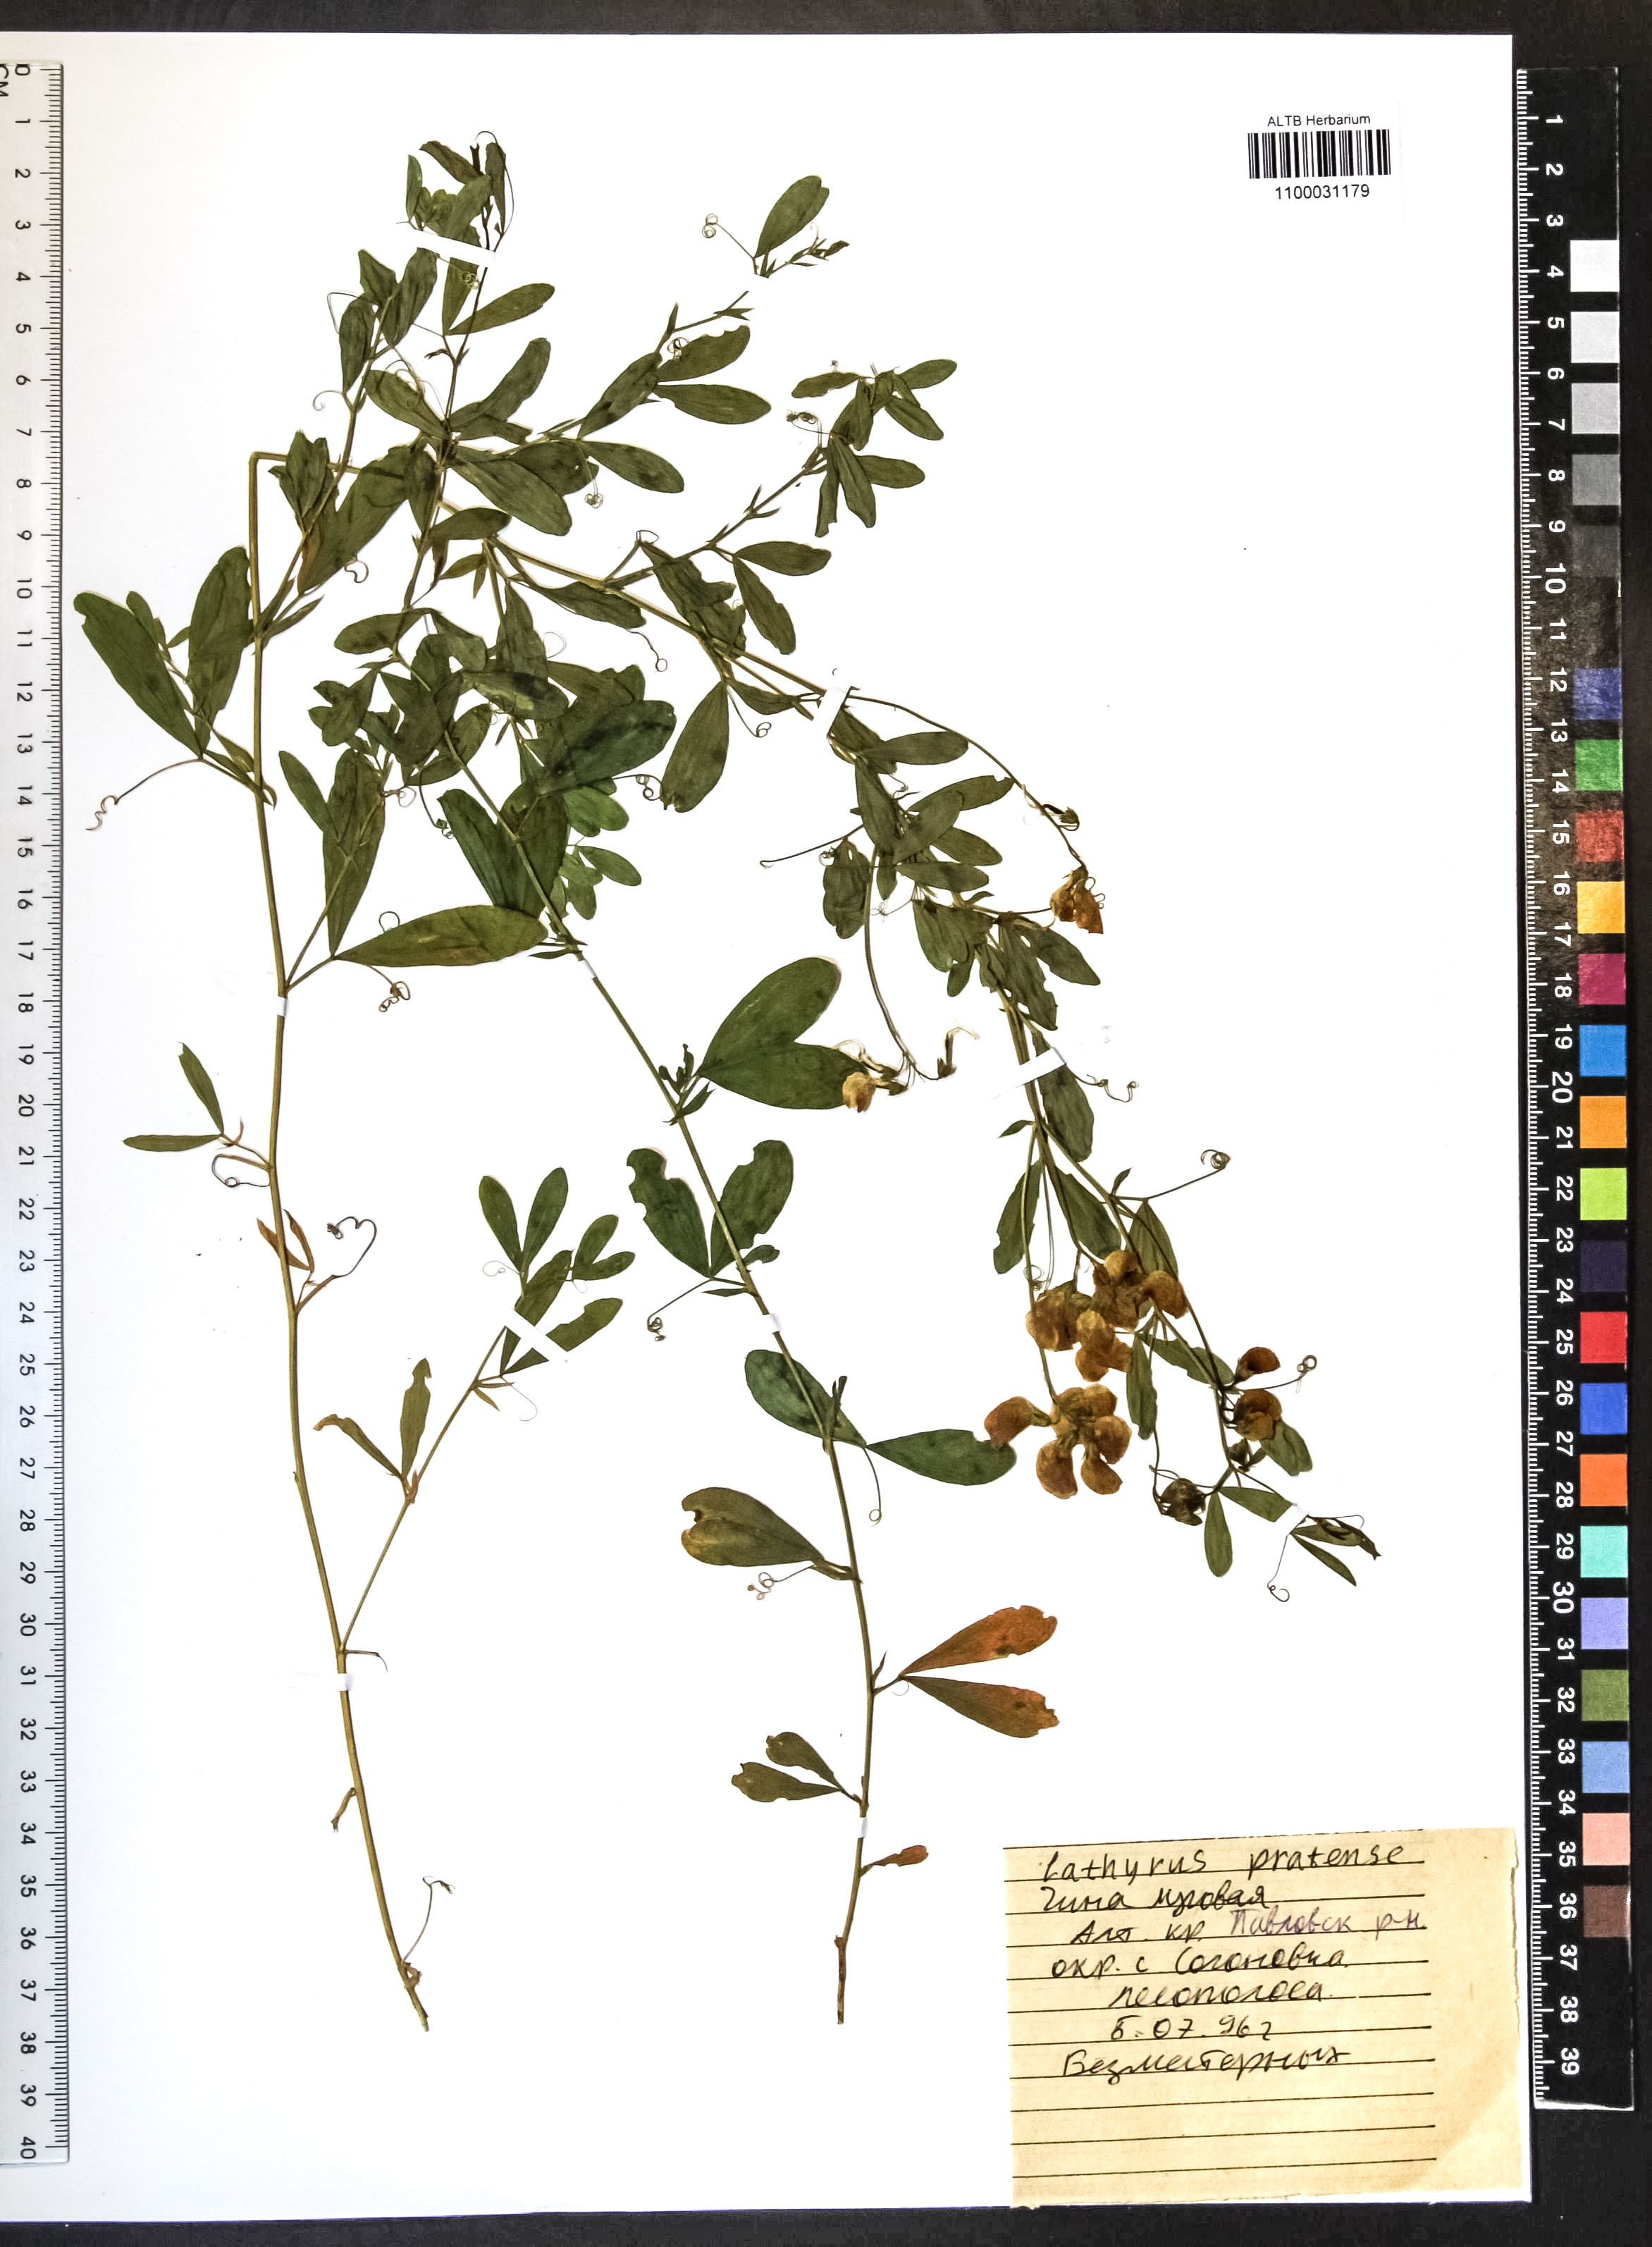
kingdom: Plantae
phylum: Tracheophyta
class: Magnoliopsida
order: Fabales
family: Fabaceae
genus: Lathyrus
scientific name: Lathyrus pratensis
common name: Meadow vetchling
